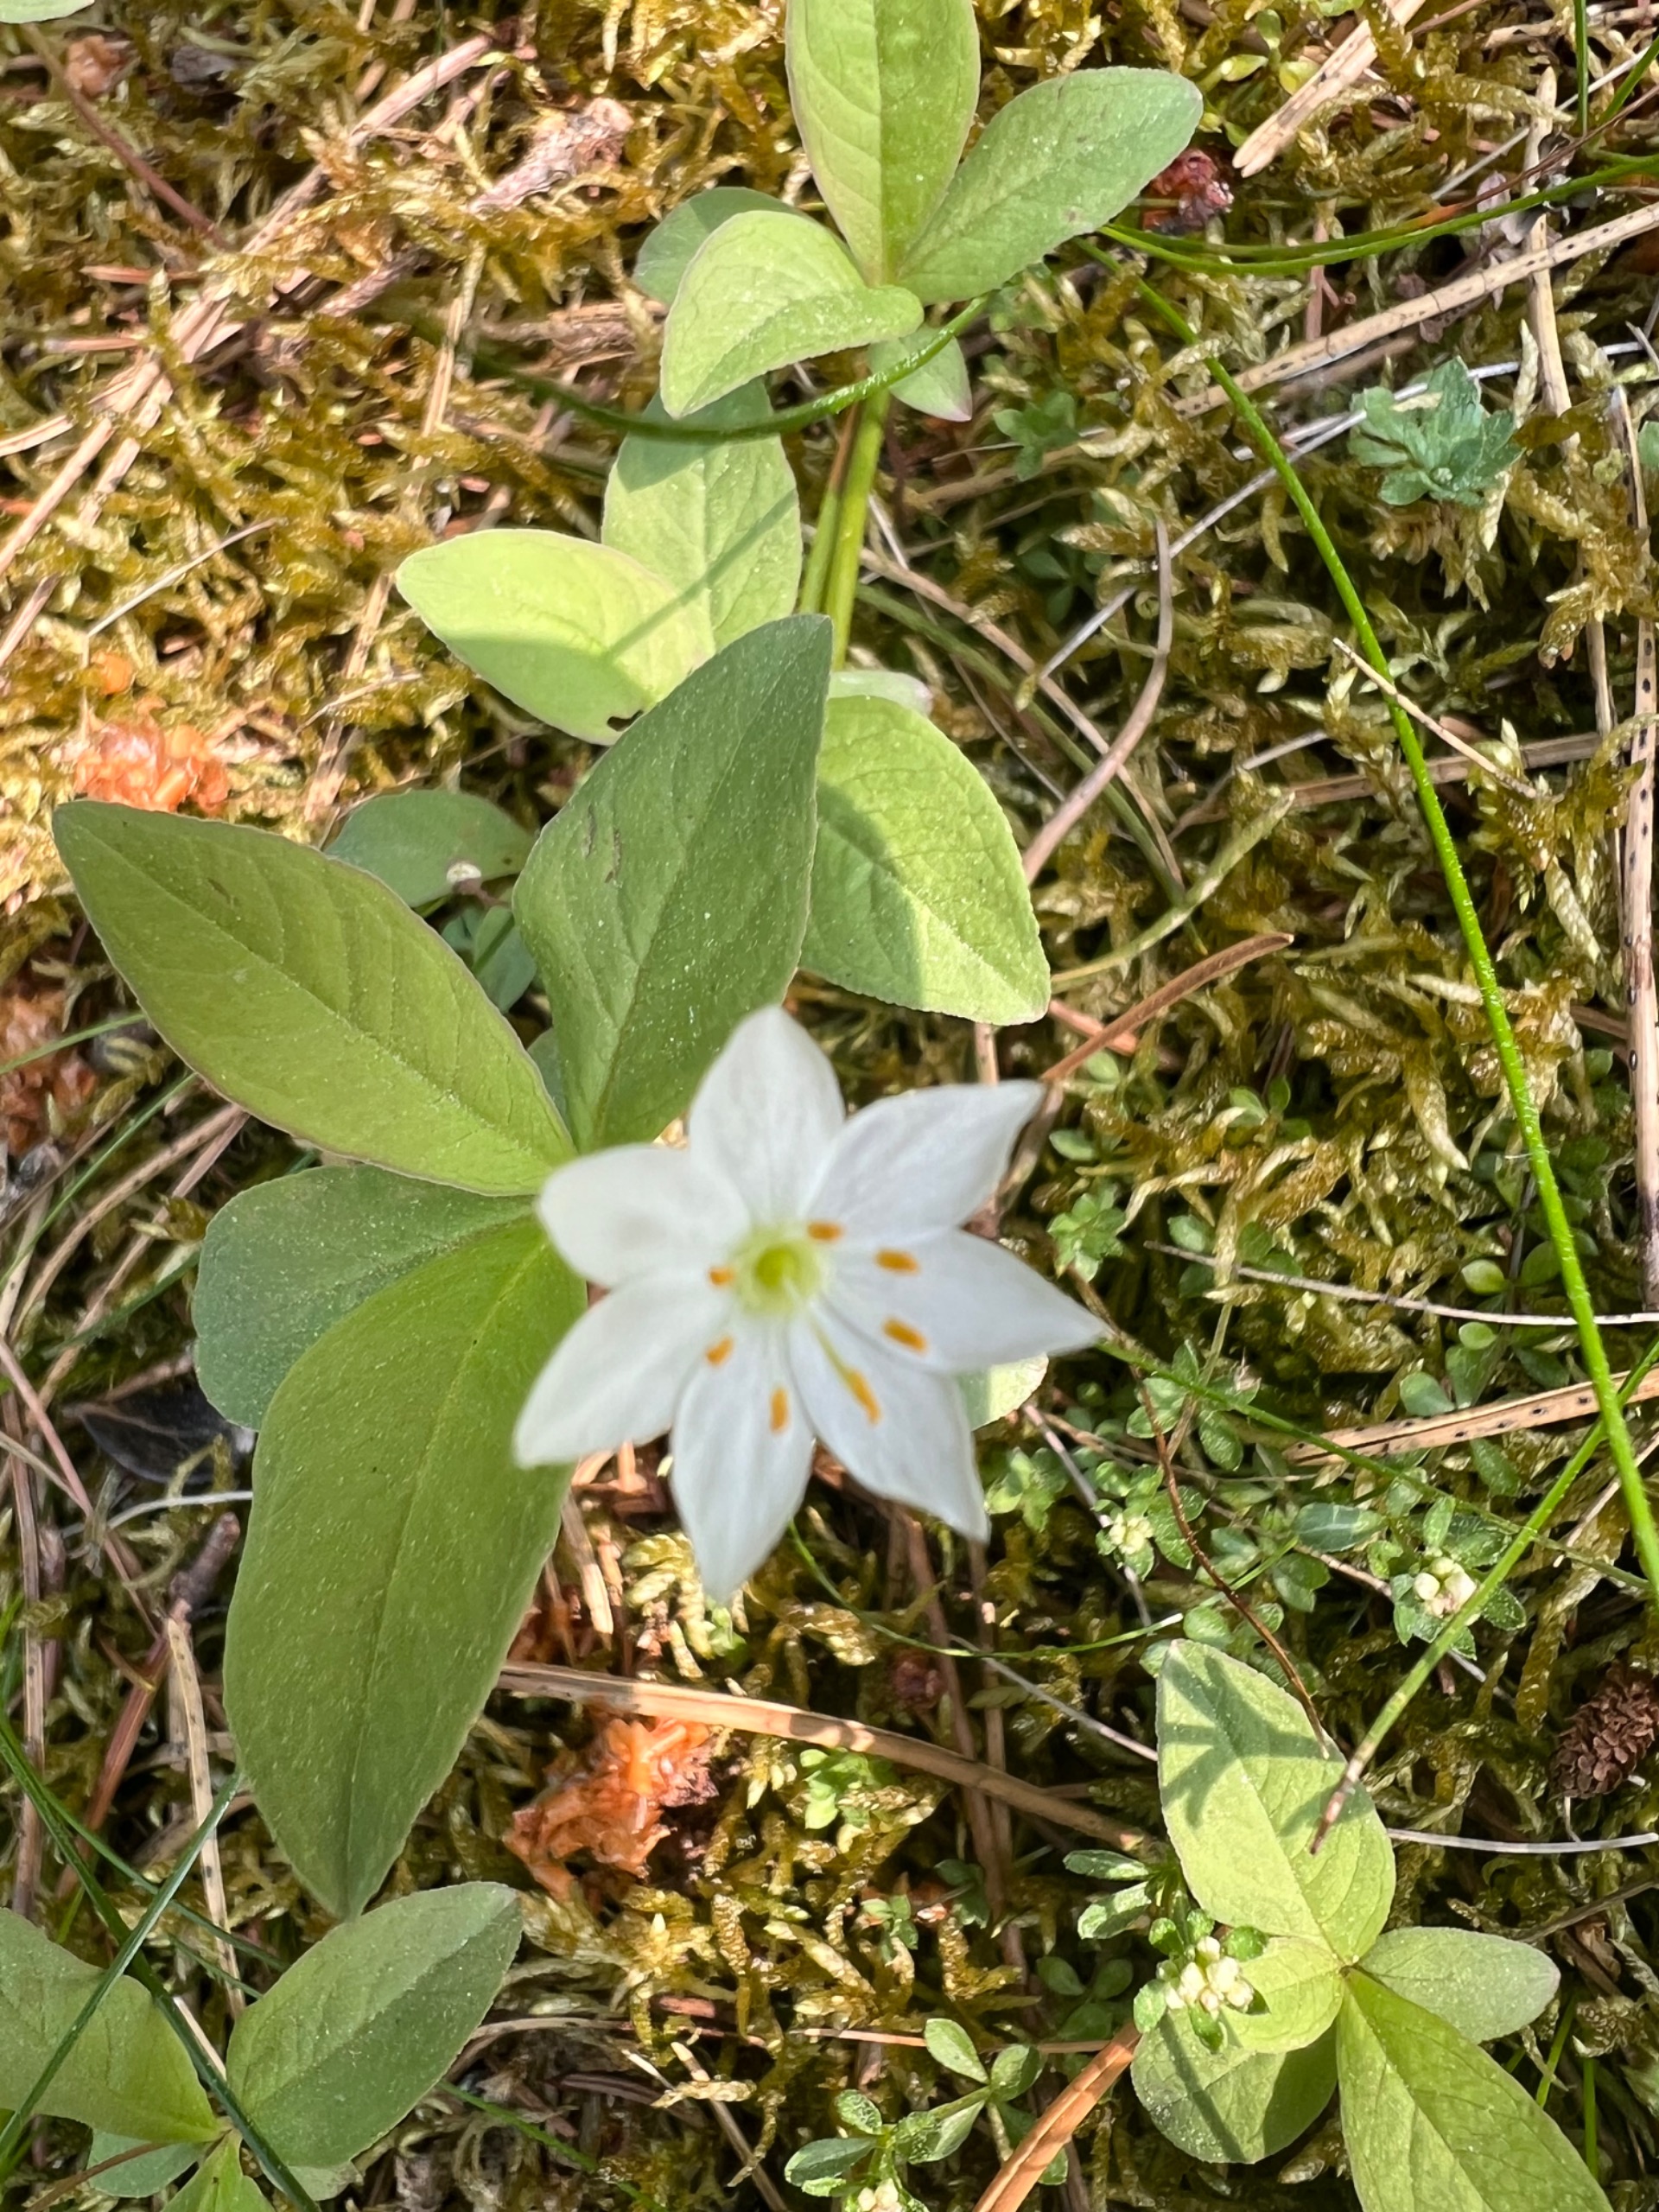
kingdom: Plantae
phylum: Tracheophyta
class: Magnoliopsida
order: Ericales
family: Primulaceae
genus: Lysimachia
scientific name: Lysimachia europaea
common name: Skovstjerne
